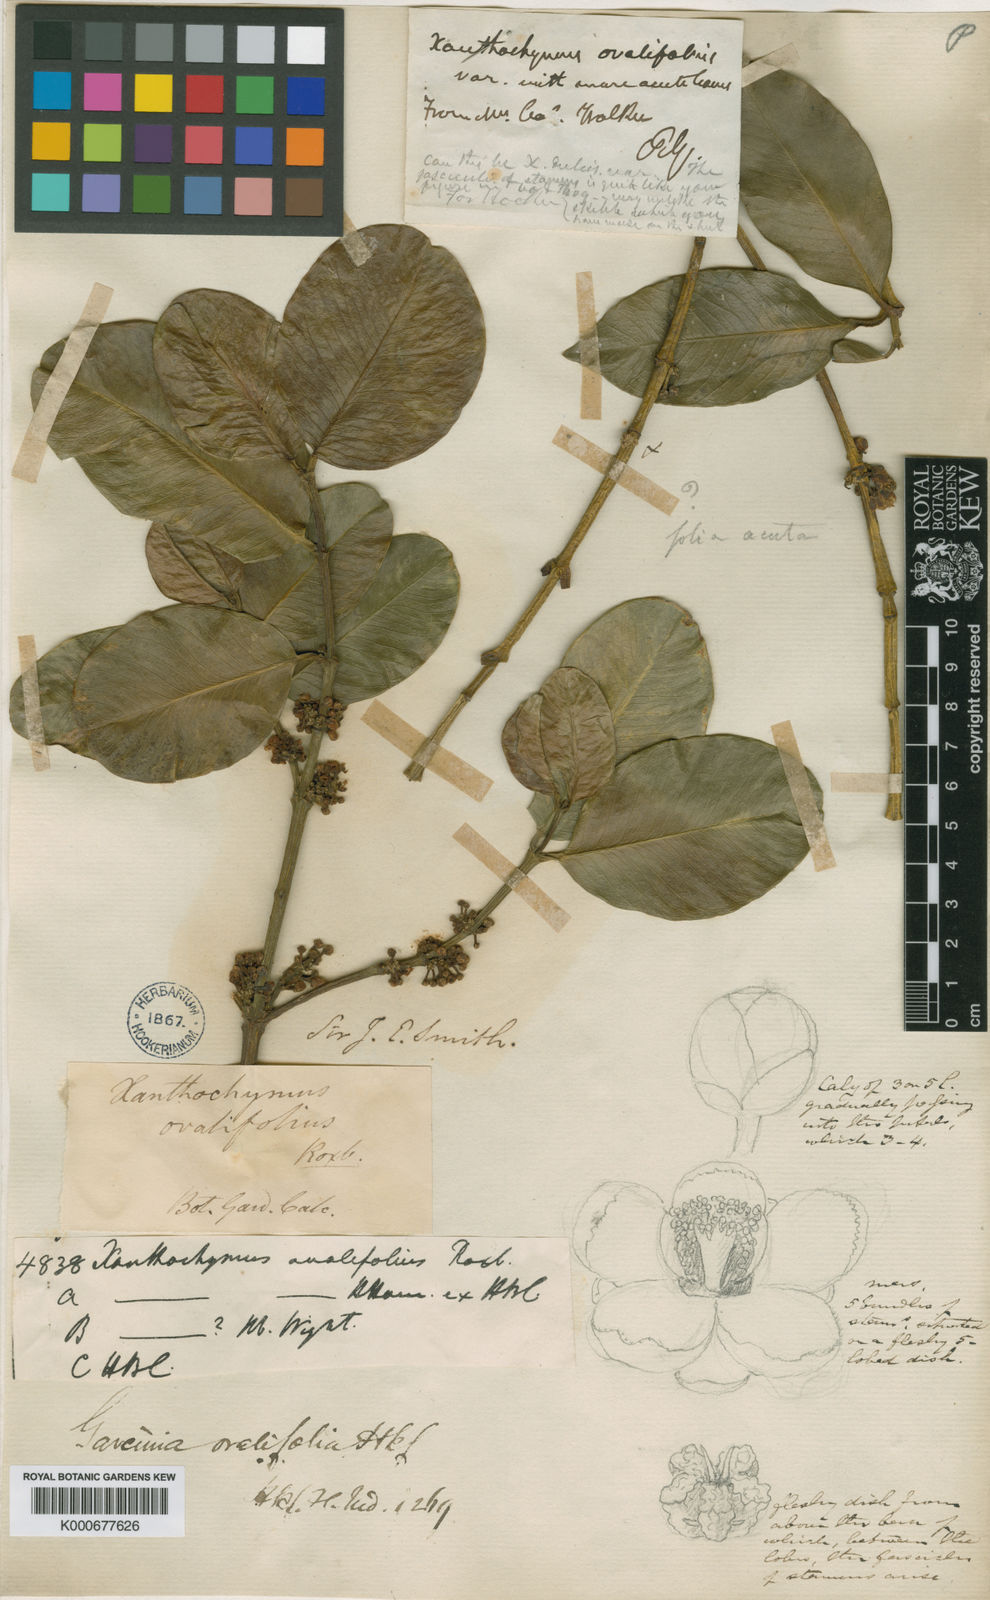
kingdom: Plantae
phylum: Tracheophyta
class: Magnoliopsida
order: Malpighiales
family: Clusiaceae
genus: Garcinia
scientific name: Garcinia ovalifolia
